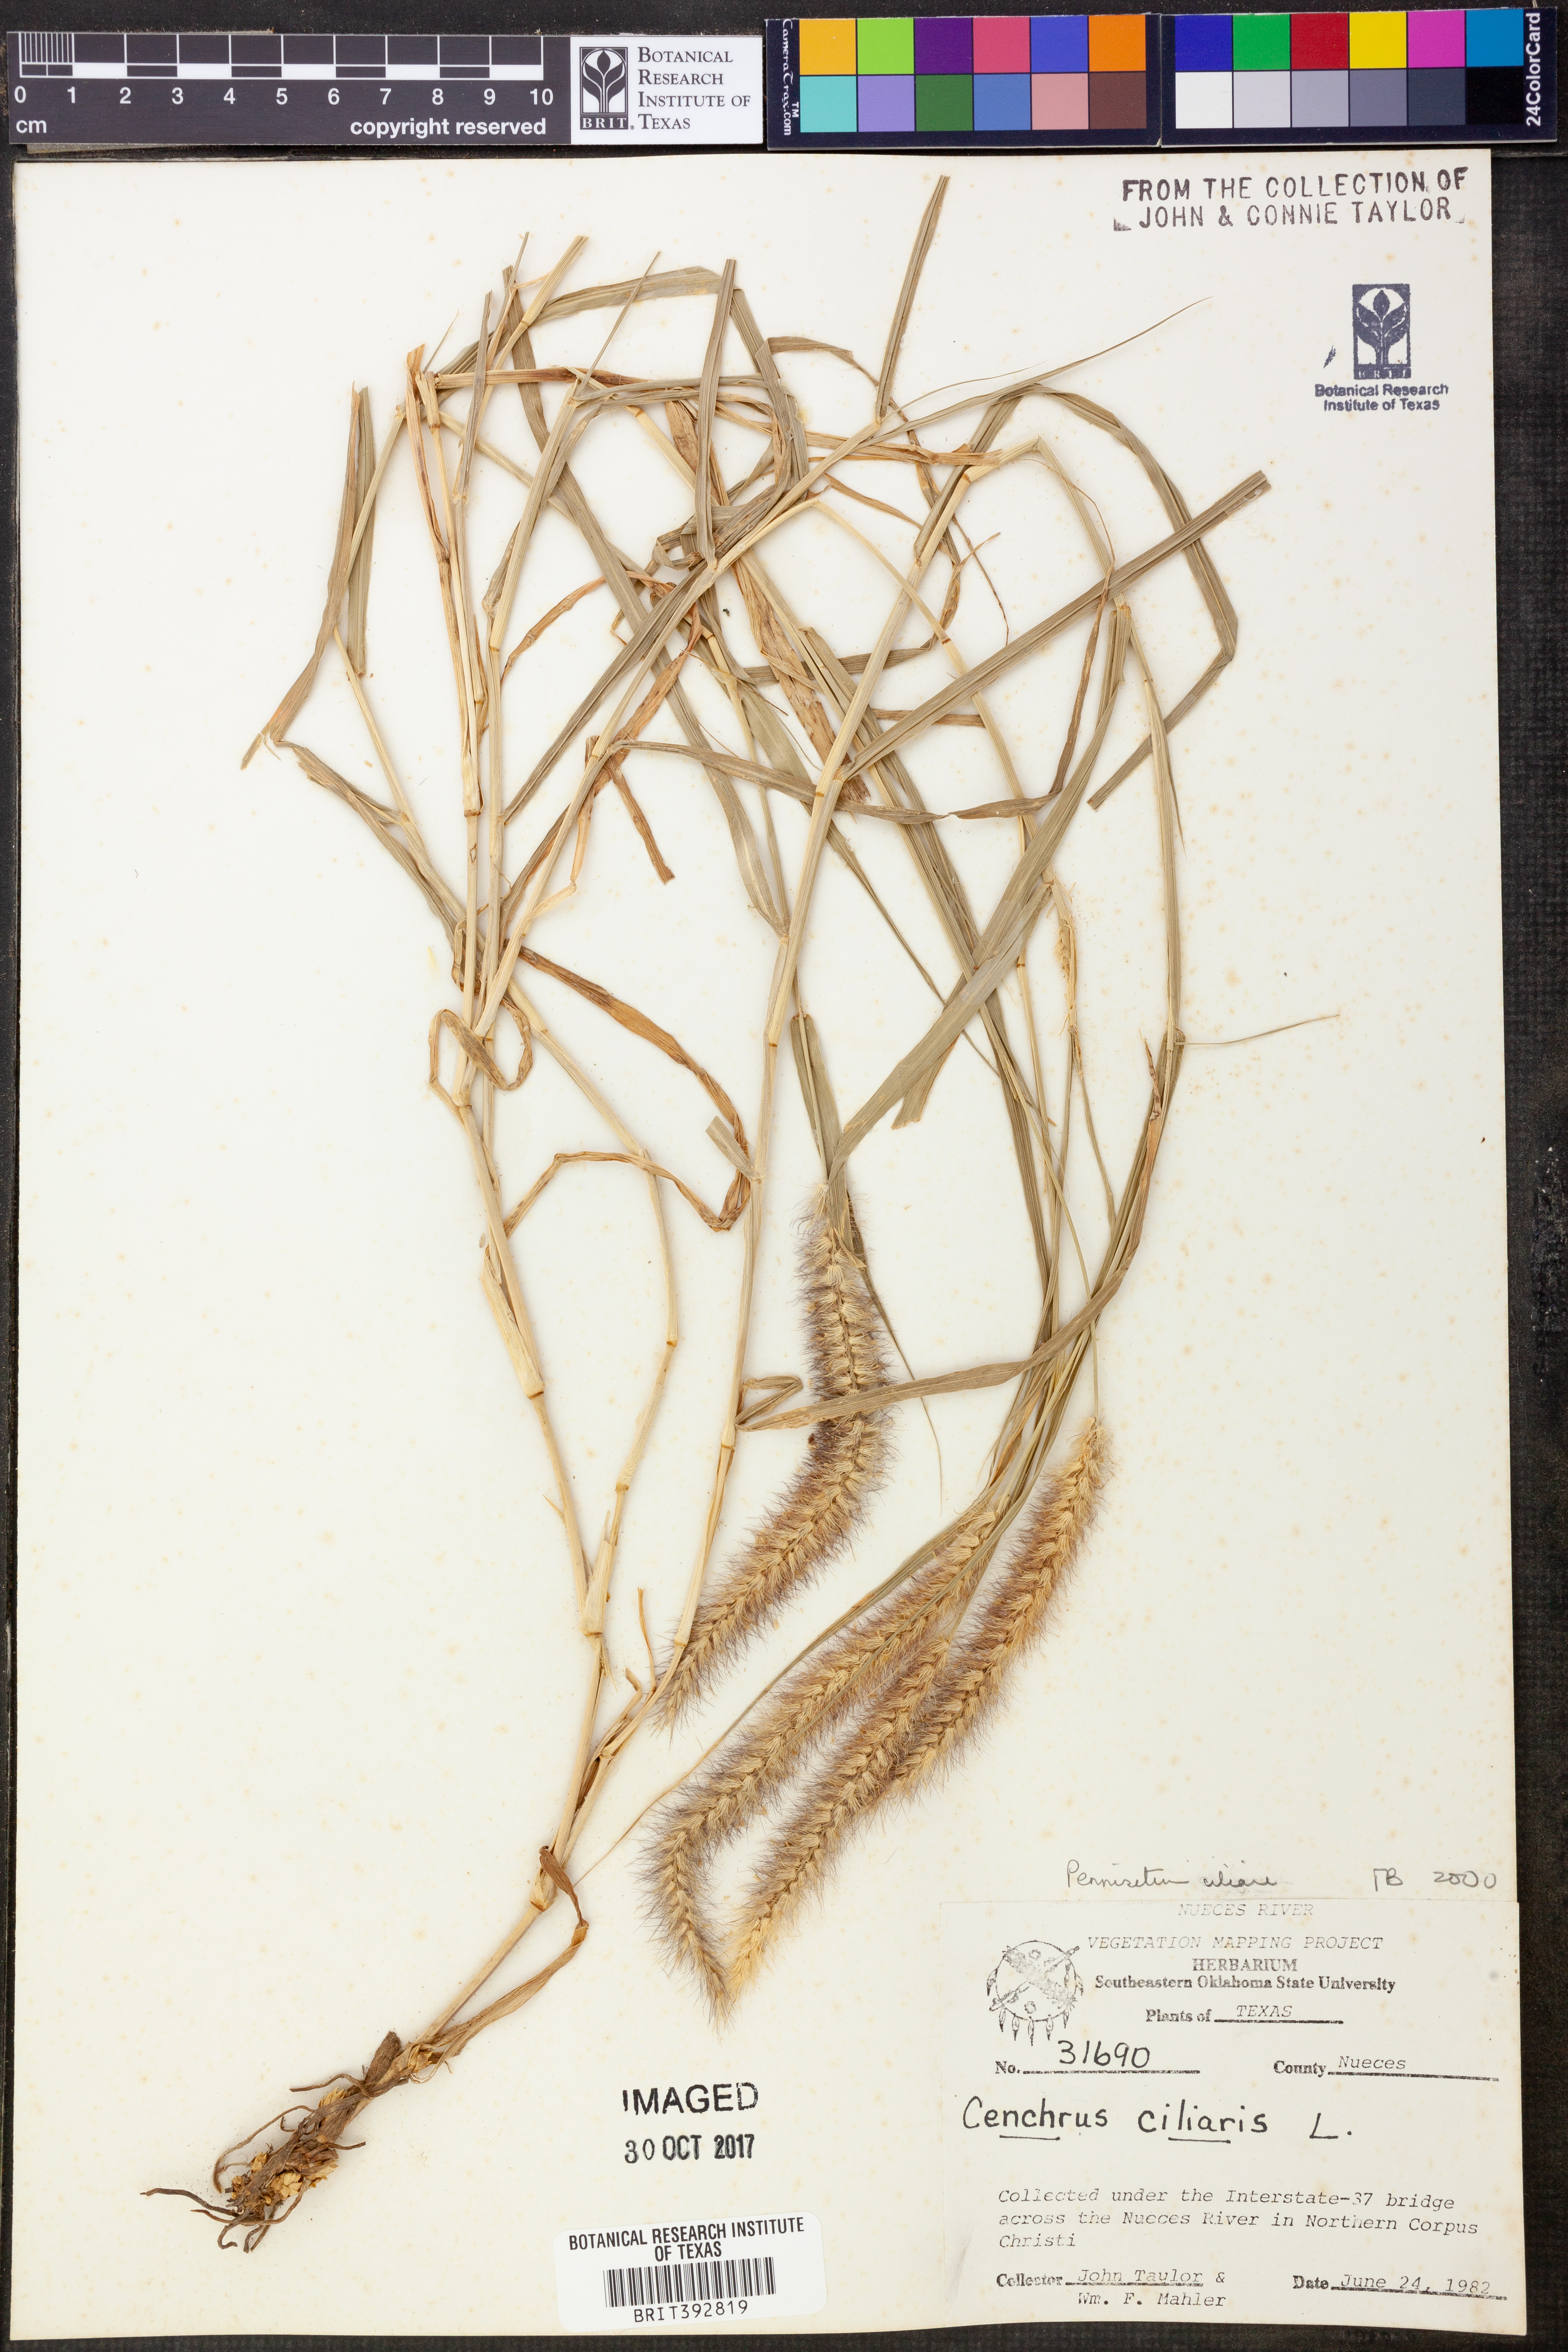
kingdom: Plantae
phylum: Tracheophyta
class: Liliopsida
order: Poales
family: Poaceae
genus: Cenchrus
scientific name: Cenchrus ciliaris
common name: Buffelgrass
